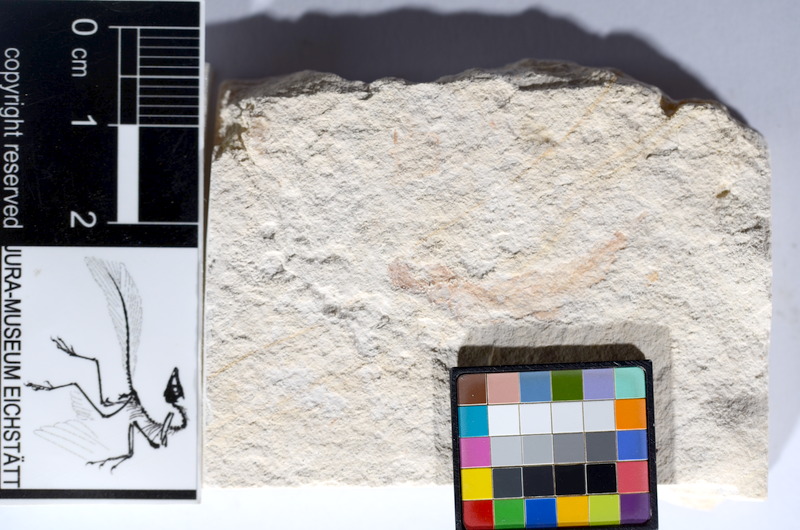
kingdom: Animalia
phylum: Chordata
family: Ascalaboidae
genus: Tharsis
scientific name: Tharsis dubius
